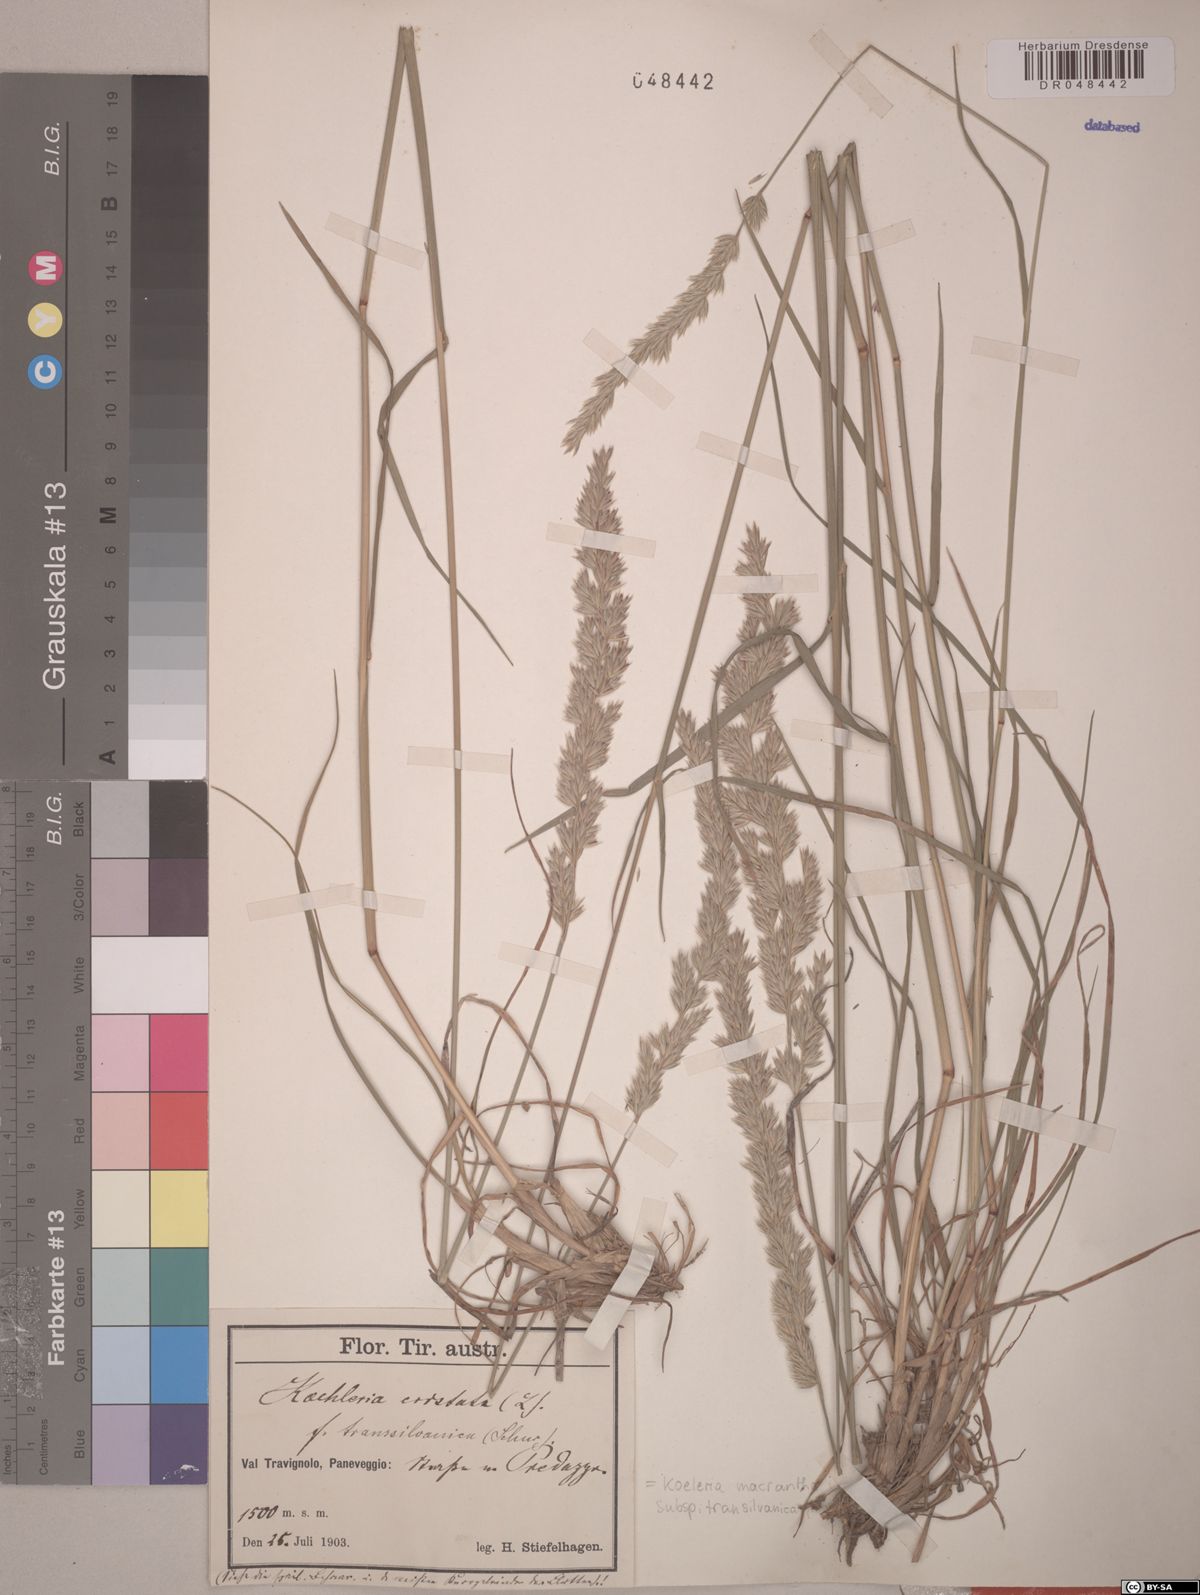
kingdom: Plantae
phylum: Tracheophyta
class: Liliopsida
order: Poales
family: Poaceae
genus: Koeleria
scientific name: Koeleria macrantha
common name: Crested hair-grass
